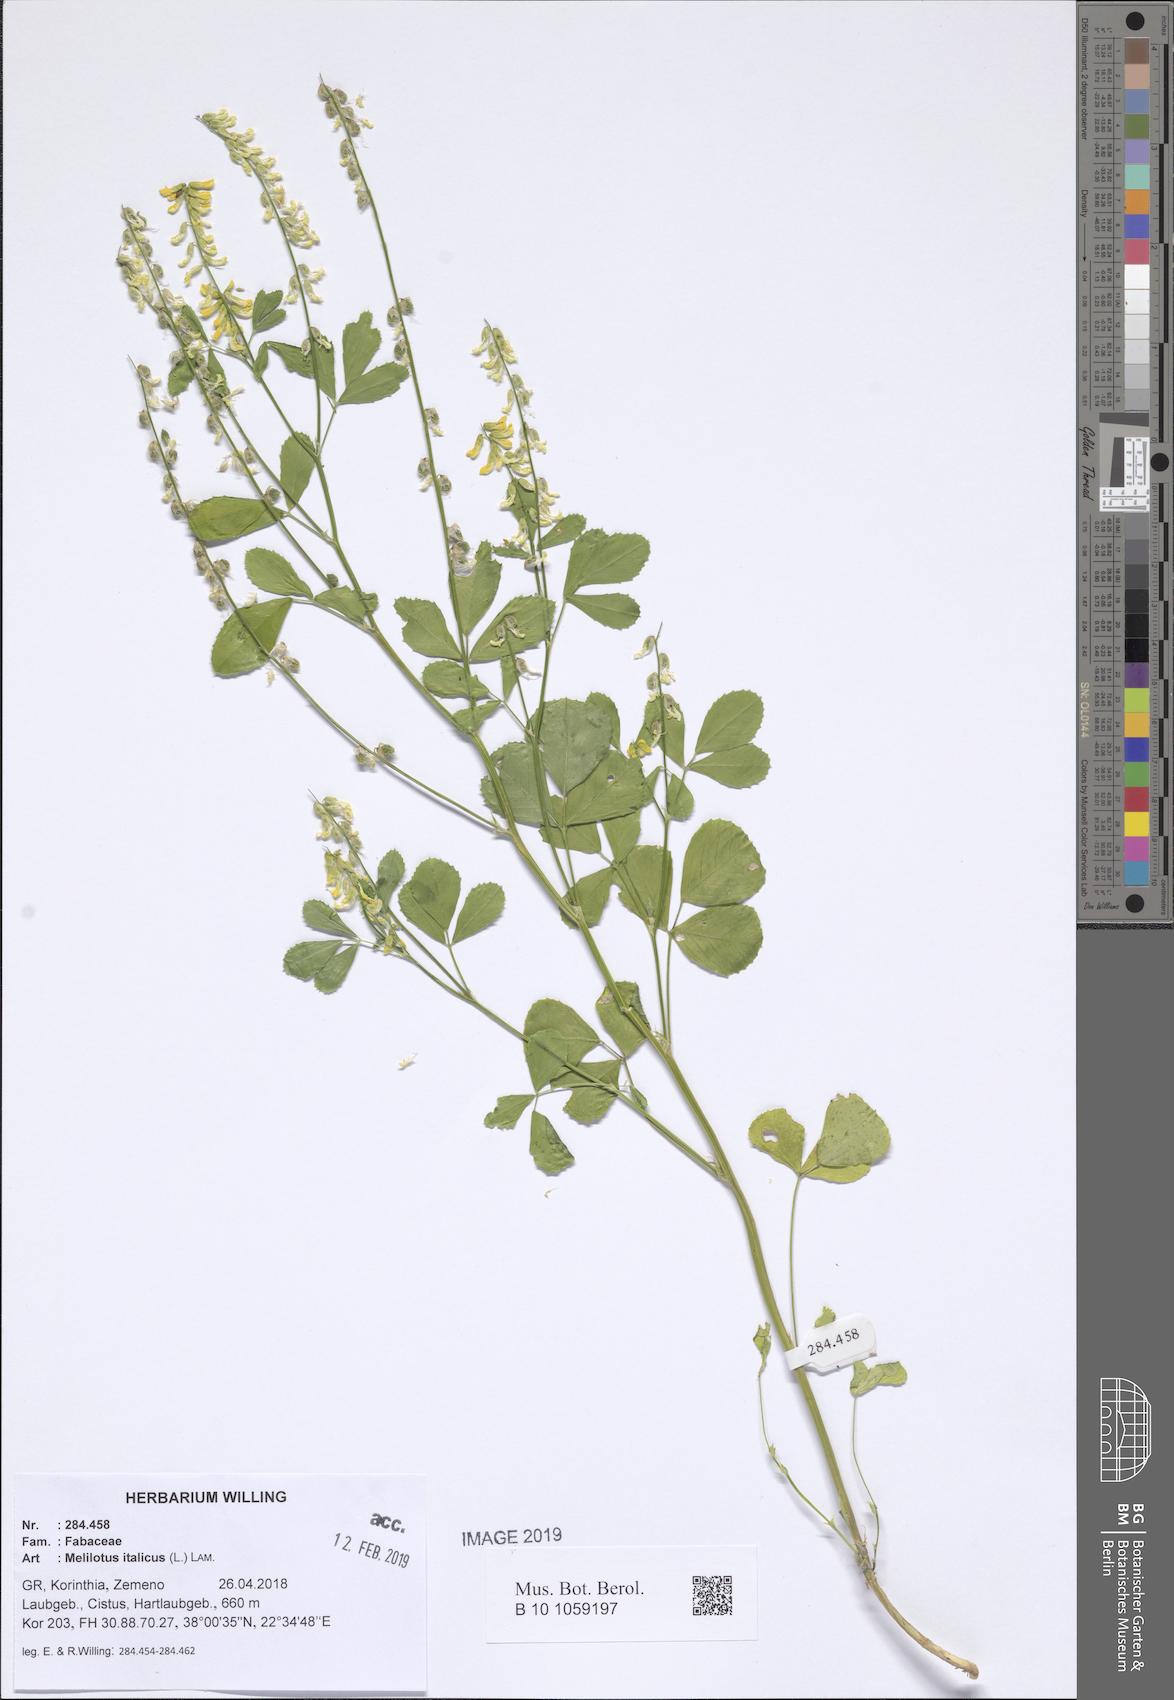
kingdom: Plantae
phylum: Tracheophyta
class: Magnoliopsida
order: Fabales
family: Fabaceae
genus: Melilotus
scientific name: Melilotus italicus
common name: Italian melilot
